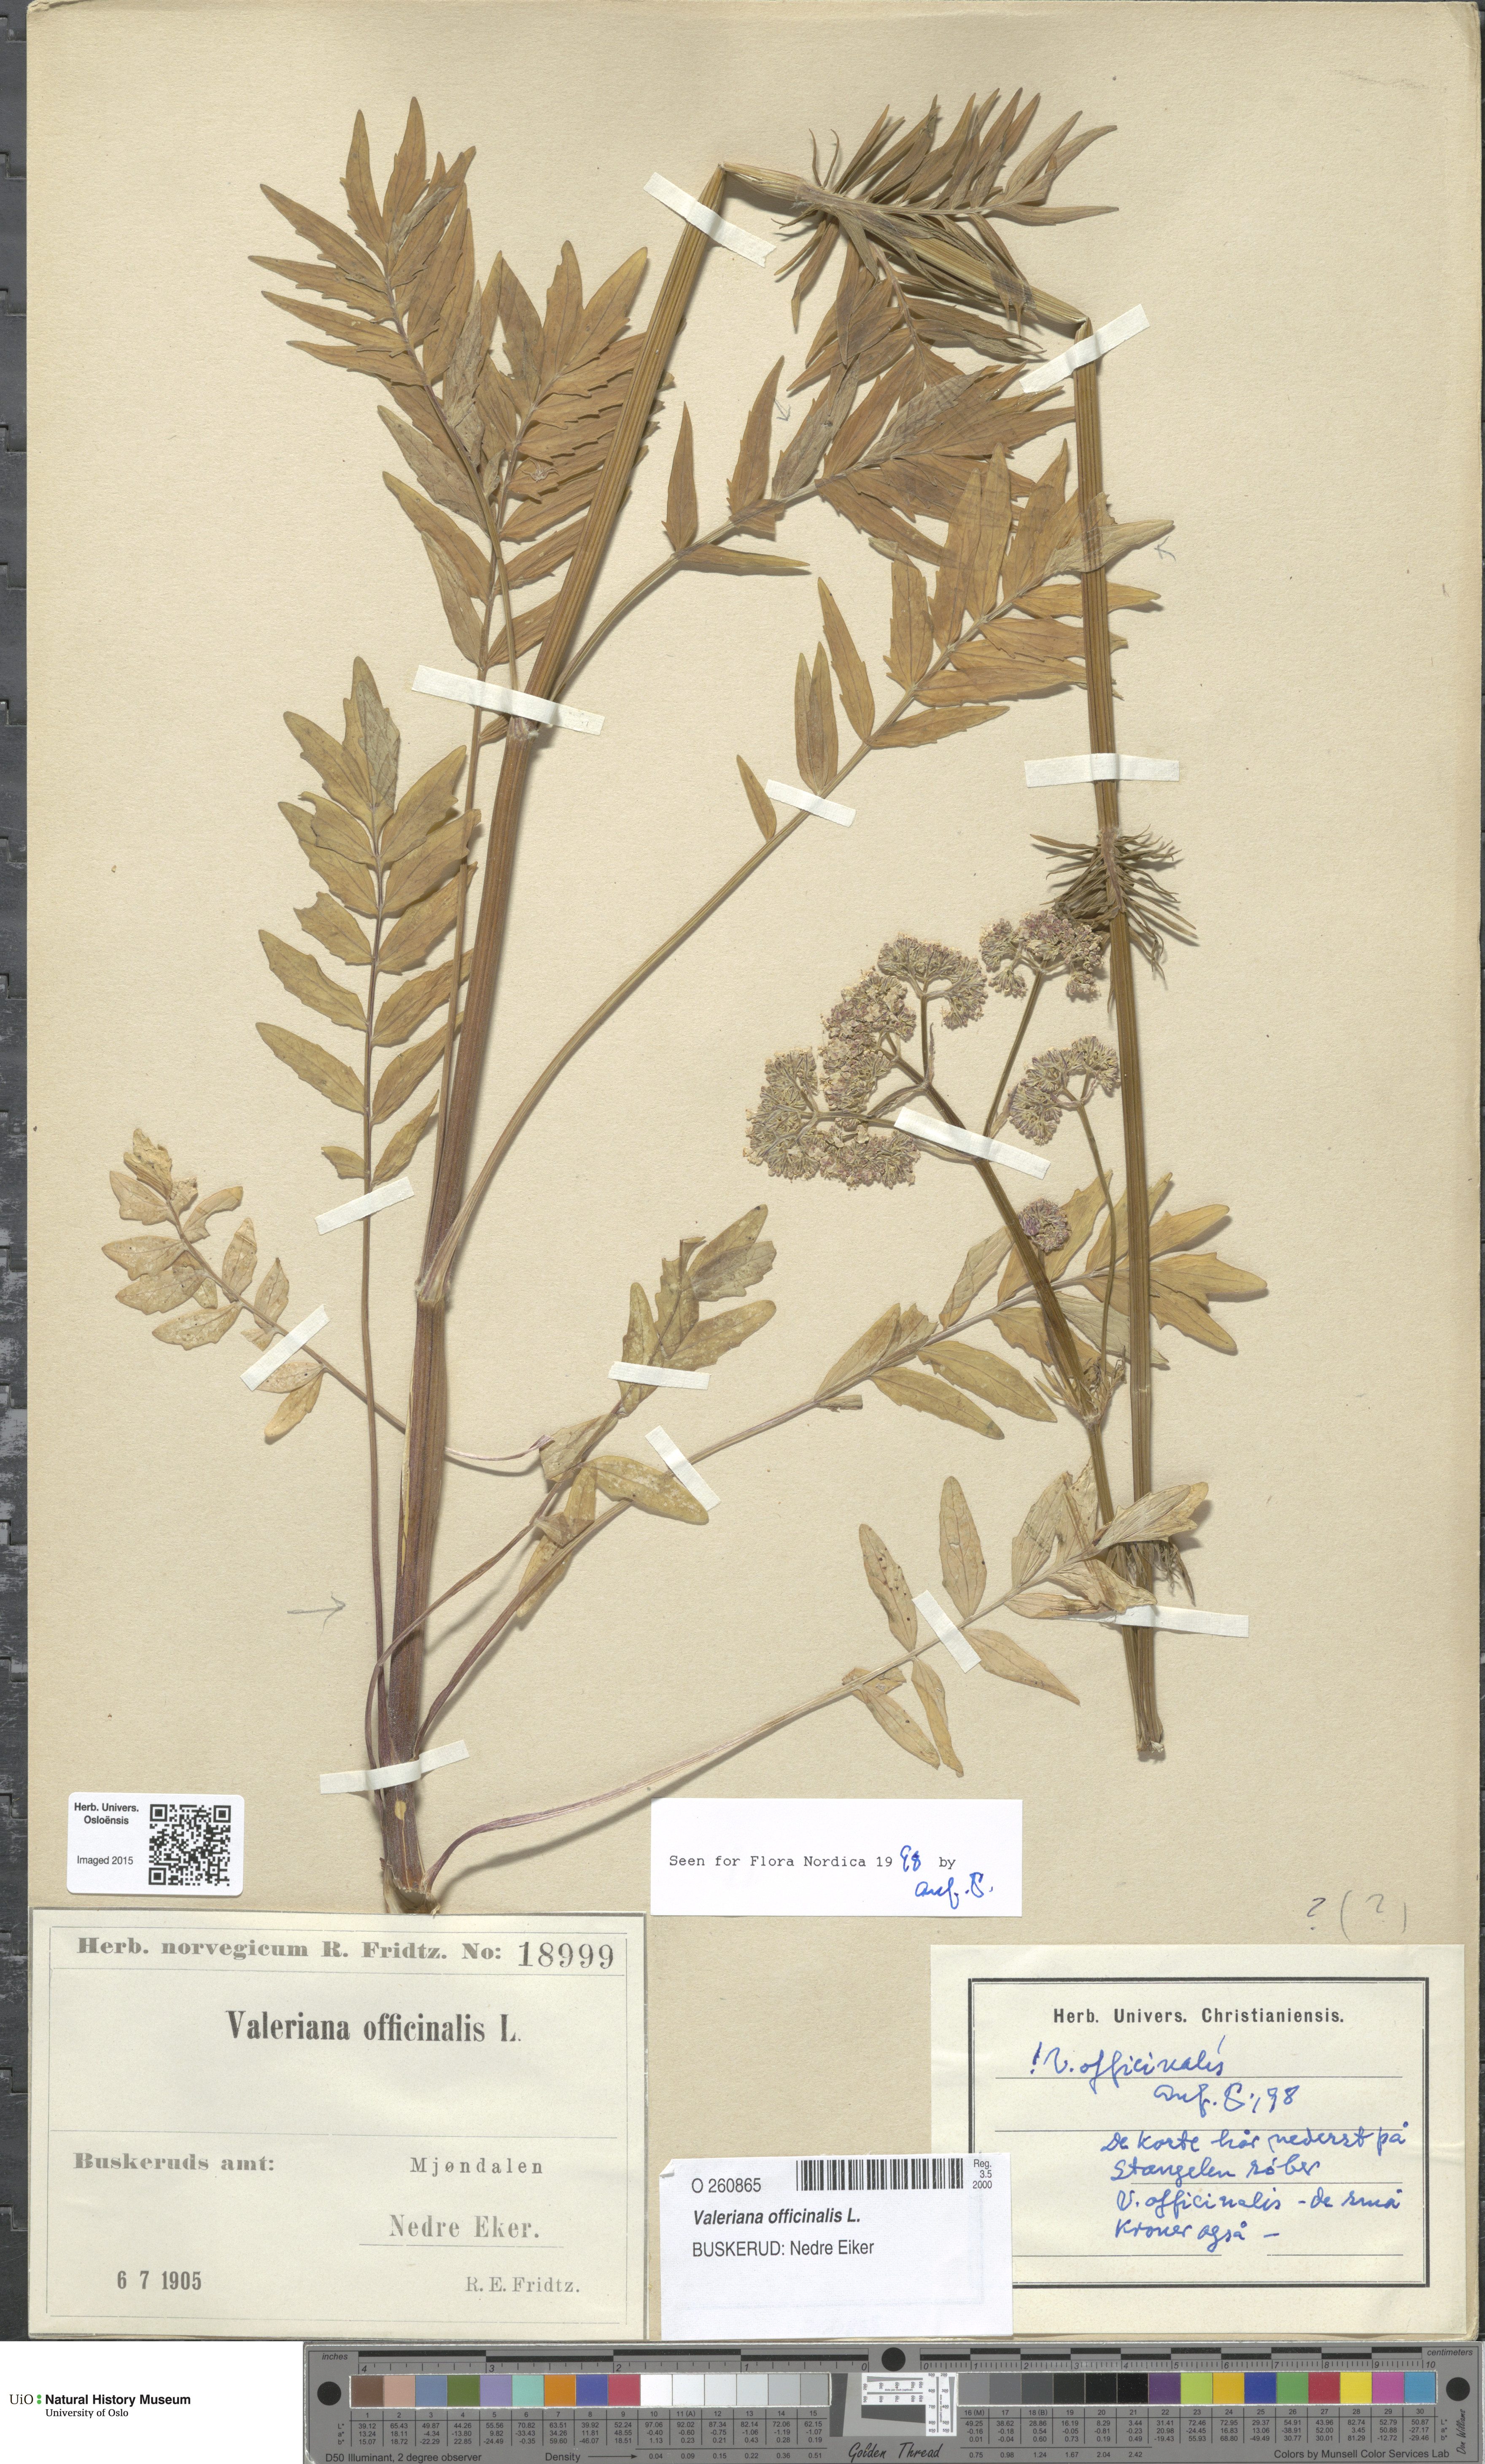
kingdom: Plantae
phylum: Tracheophyta
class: Magnoliopsida
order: Dipsacales
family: Caprifoliaceae
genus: Valeriana
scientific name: Valeriana officinalis
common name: Common valerian
